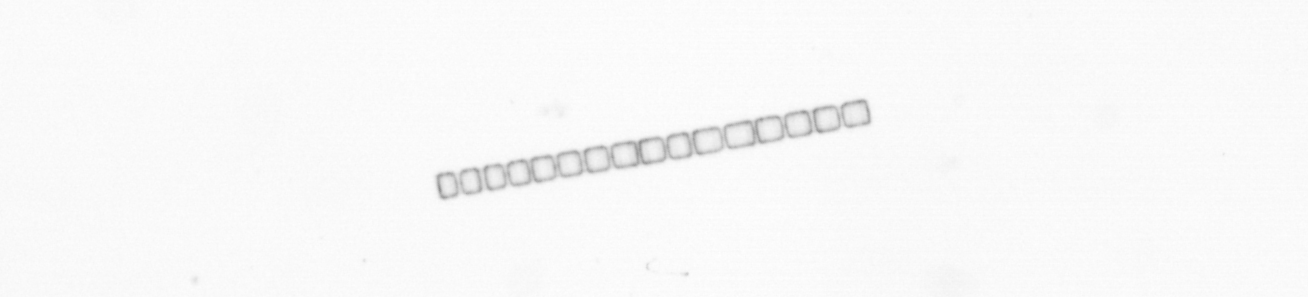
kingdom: Chromista
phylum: Ochrophyta
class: Bacillariophyceae
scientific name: Bacillariophyceae
